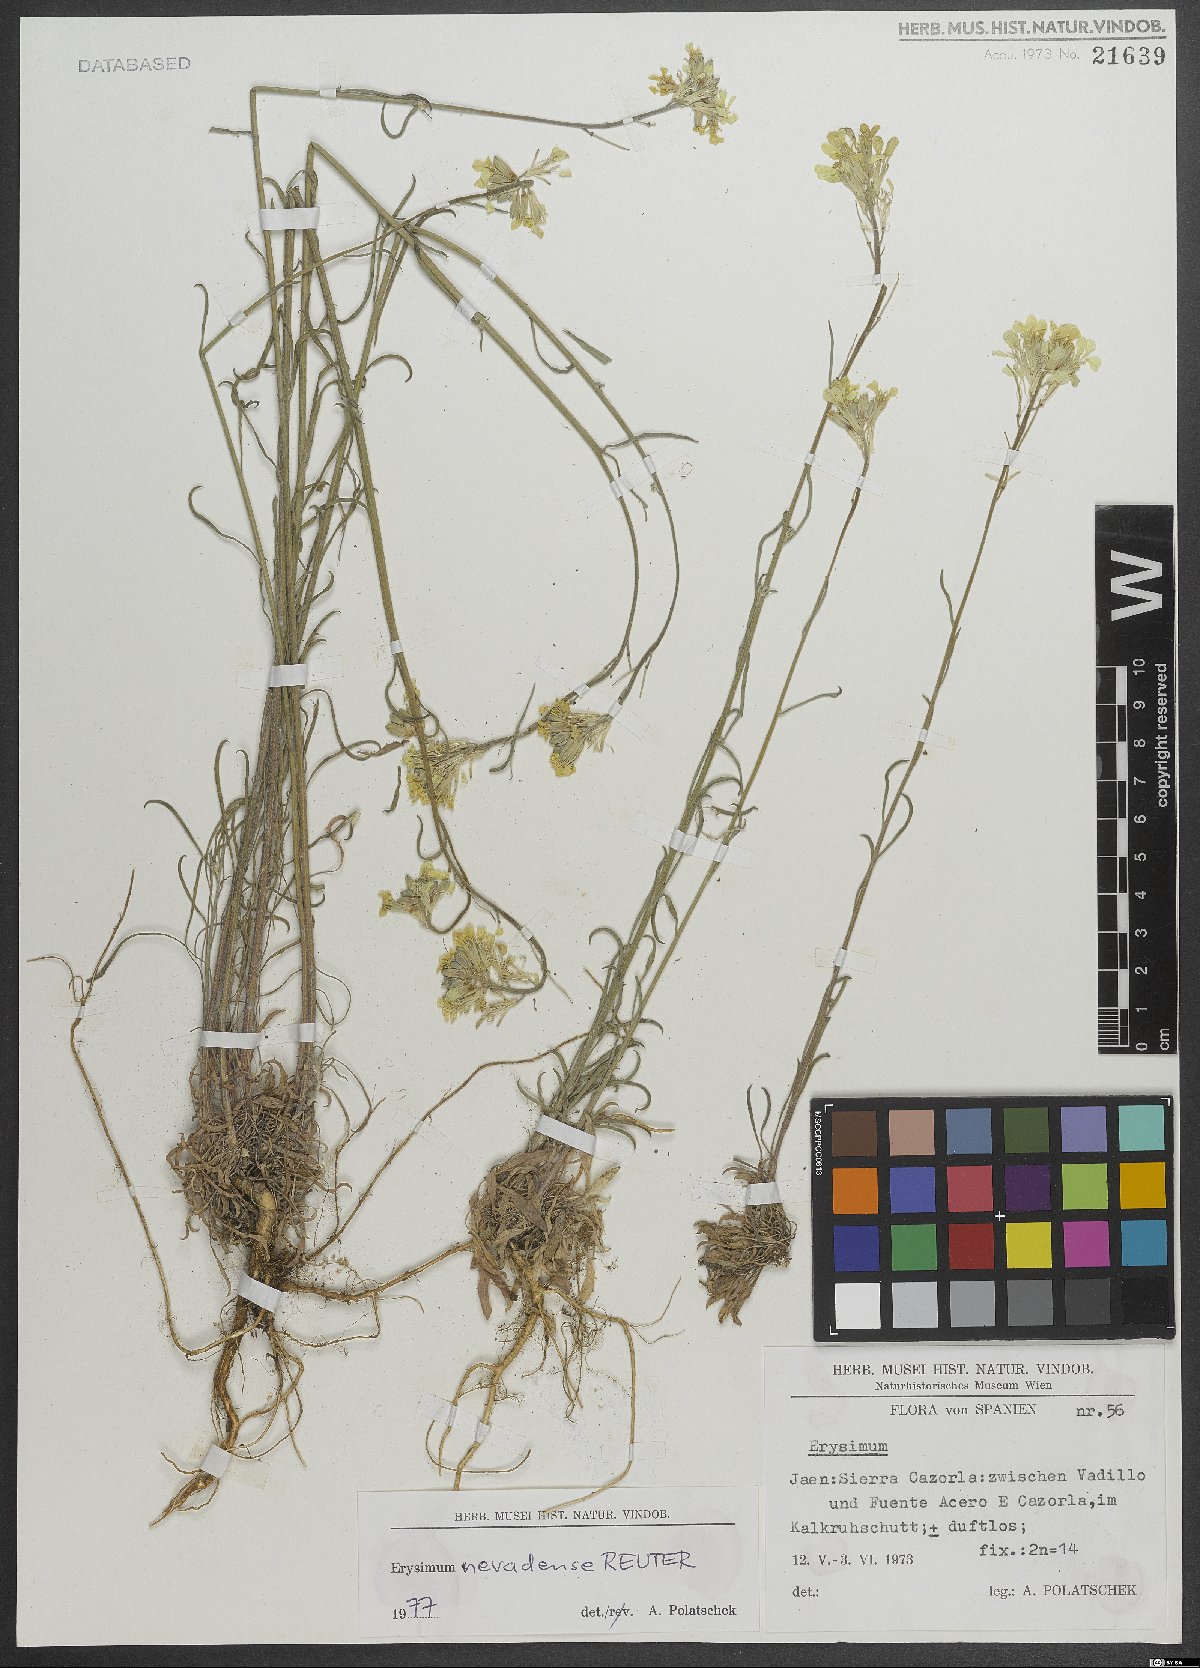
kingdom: Plantae
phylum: Tracheophyta
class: Magnoliopsida
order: Brassicales
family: Brassicaceae
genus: Erysimum
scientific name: Erysimum nevadense
